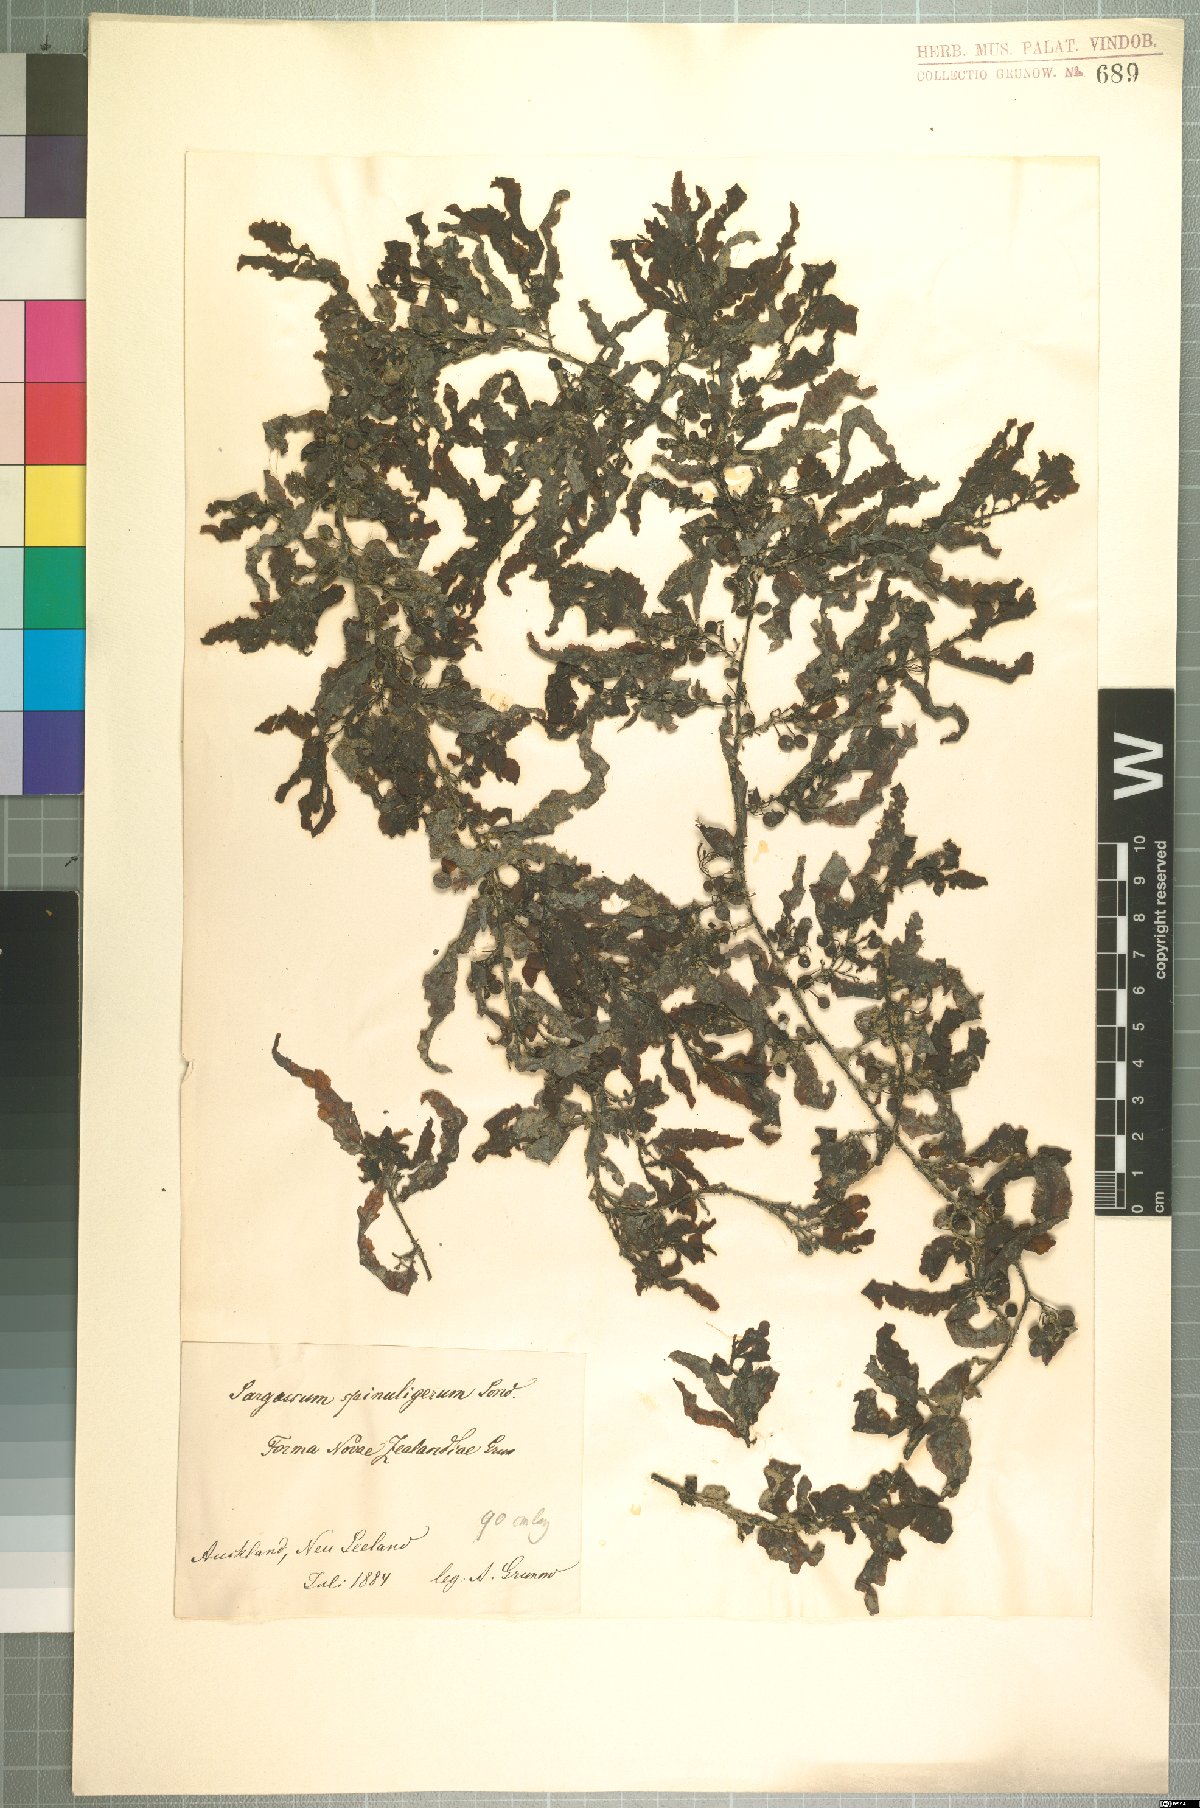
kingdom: Chromista
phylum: Ochrophyta
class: Phaeophyceae
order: Fucales
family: Sargassaceae
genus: Sargassum
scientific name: Sargassum
